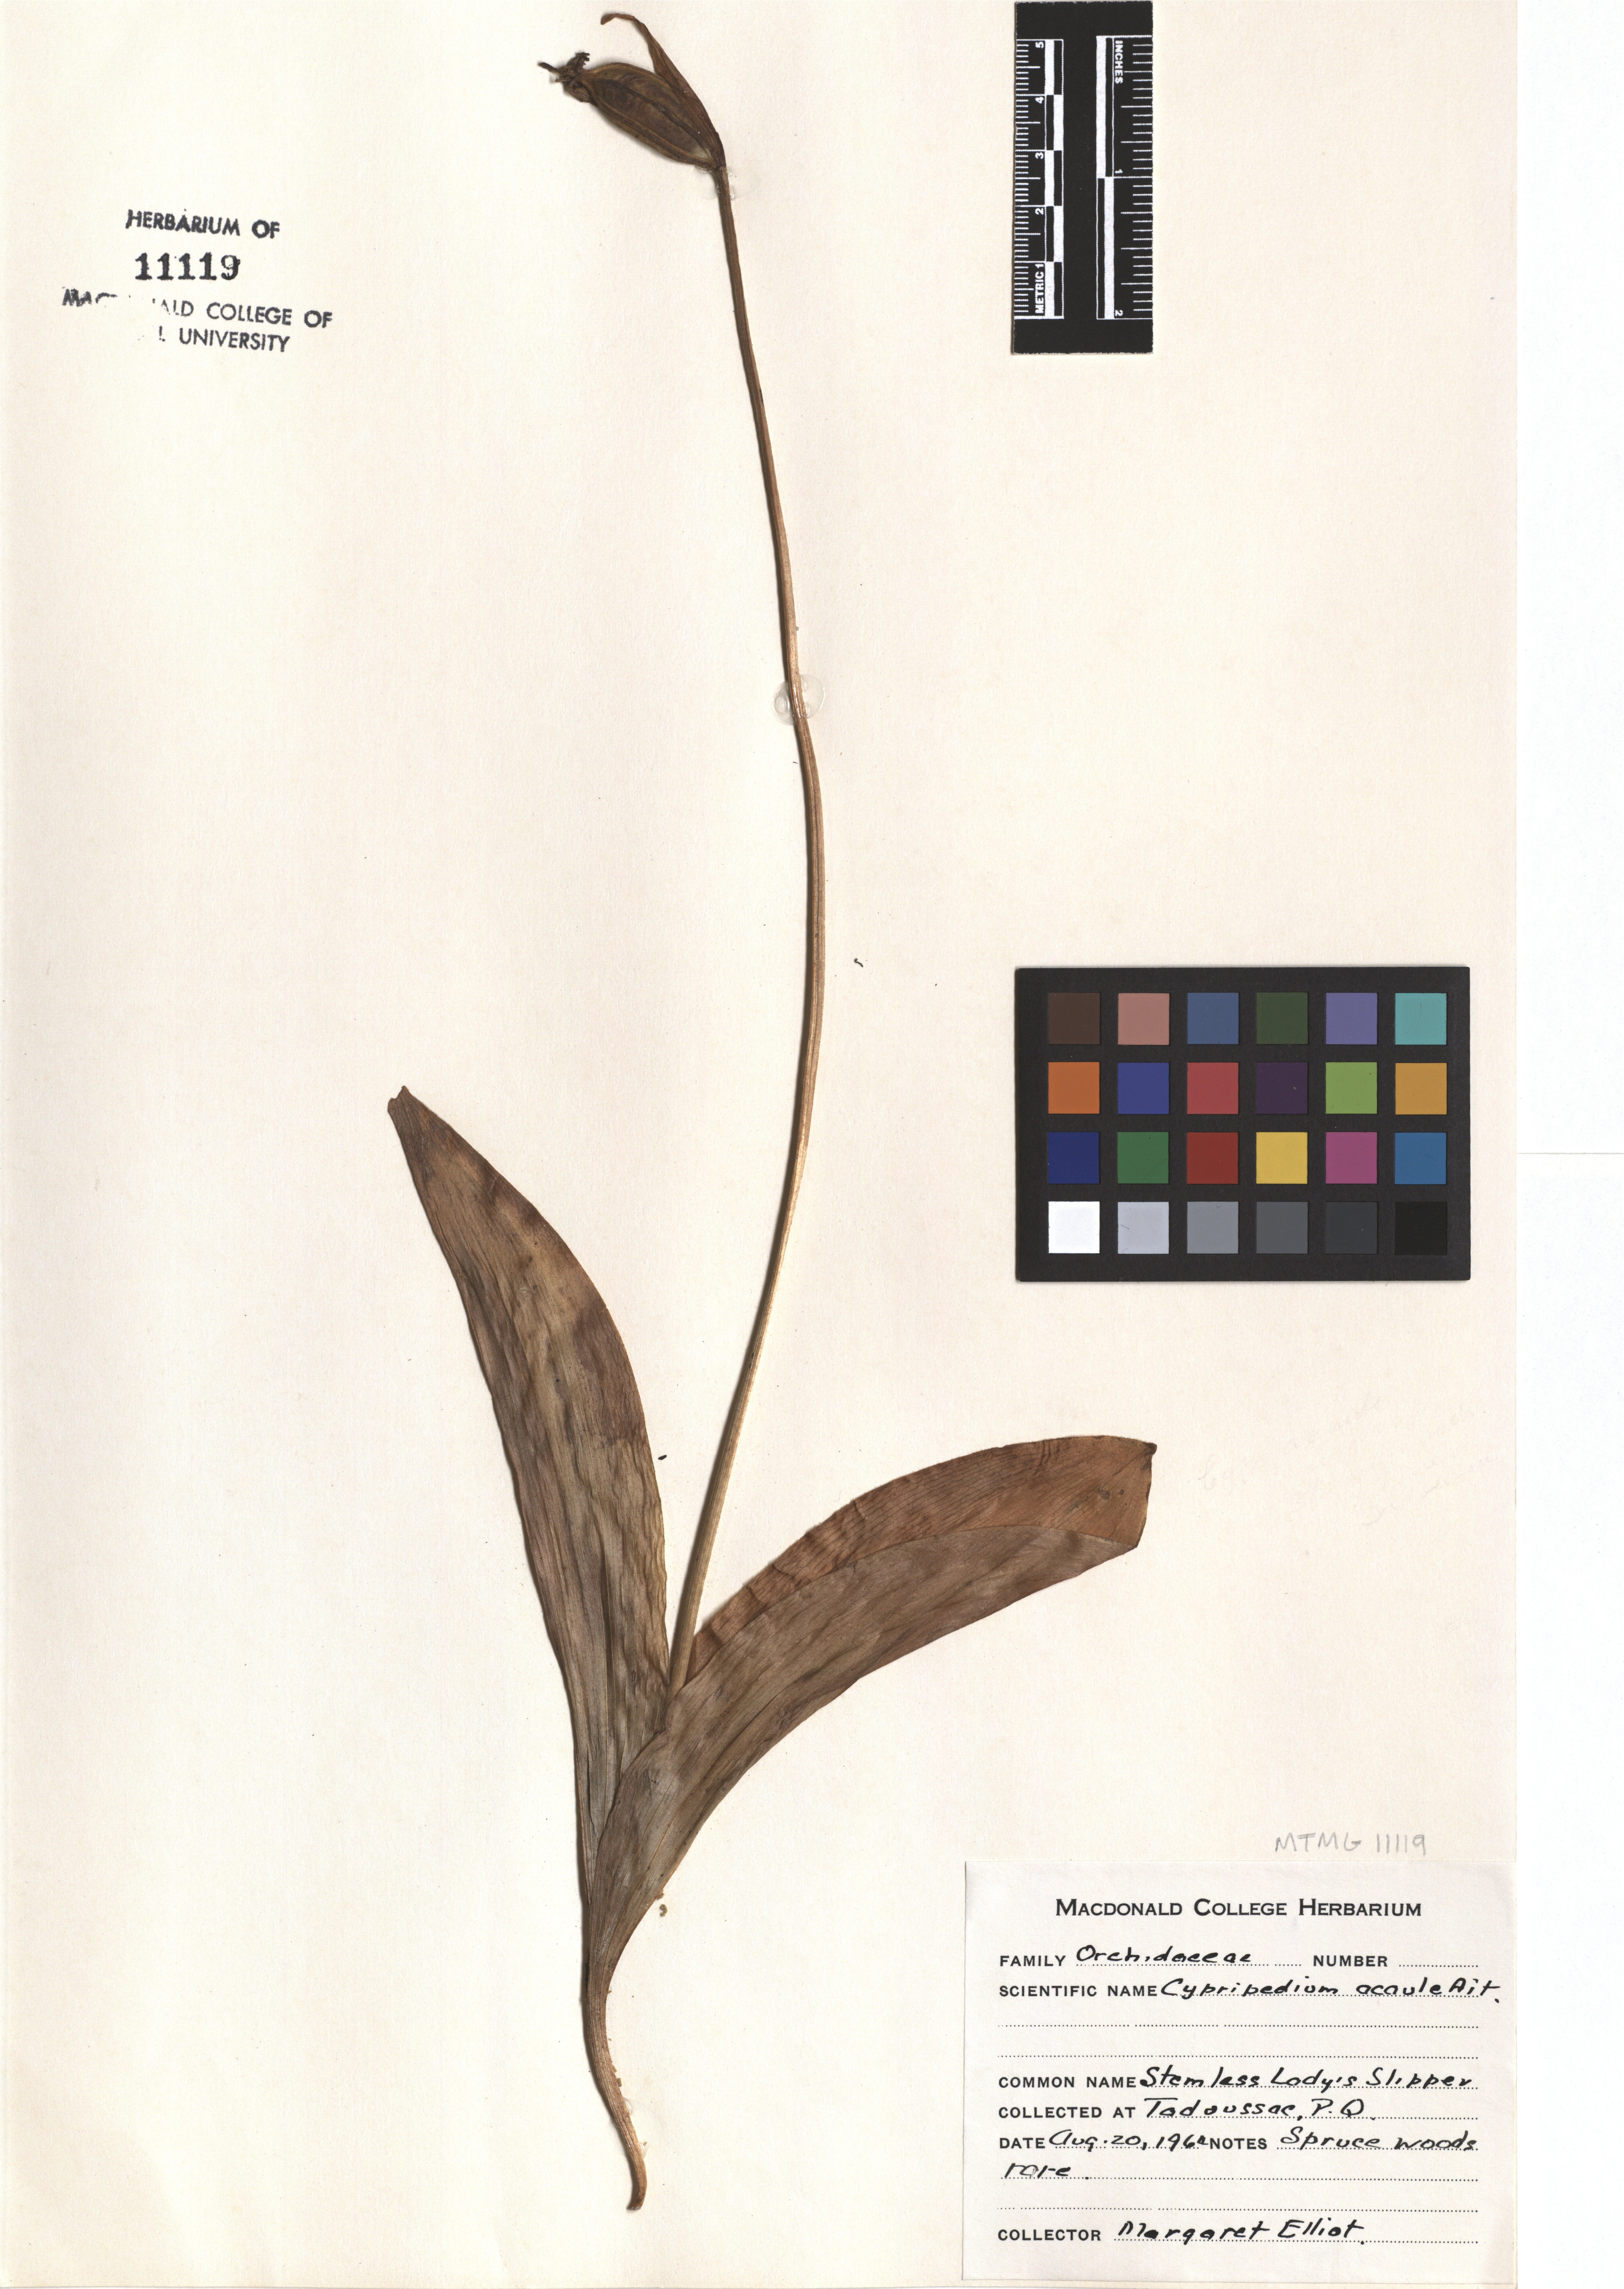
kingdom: Plantae
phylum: Tracheophyta
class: Liliopsida
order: Asparagales
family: Orchidaceae
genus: Cypripedium
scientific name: Cypripedium acaule
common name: Pink lady's-slipper
